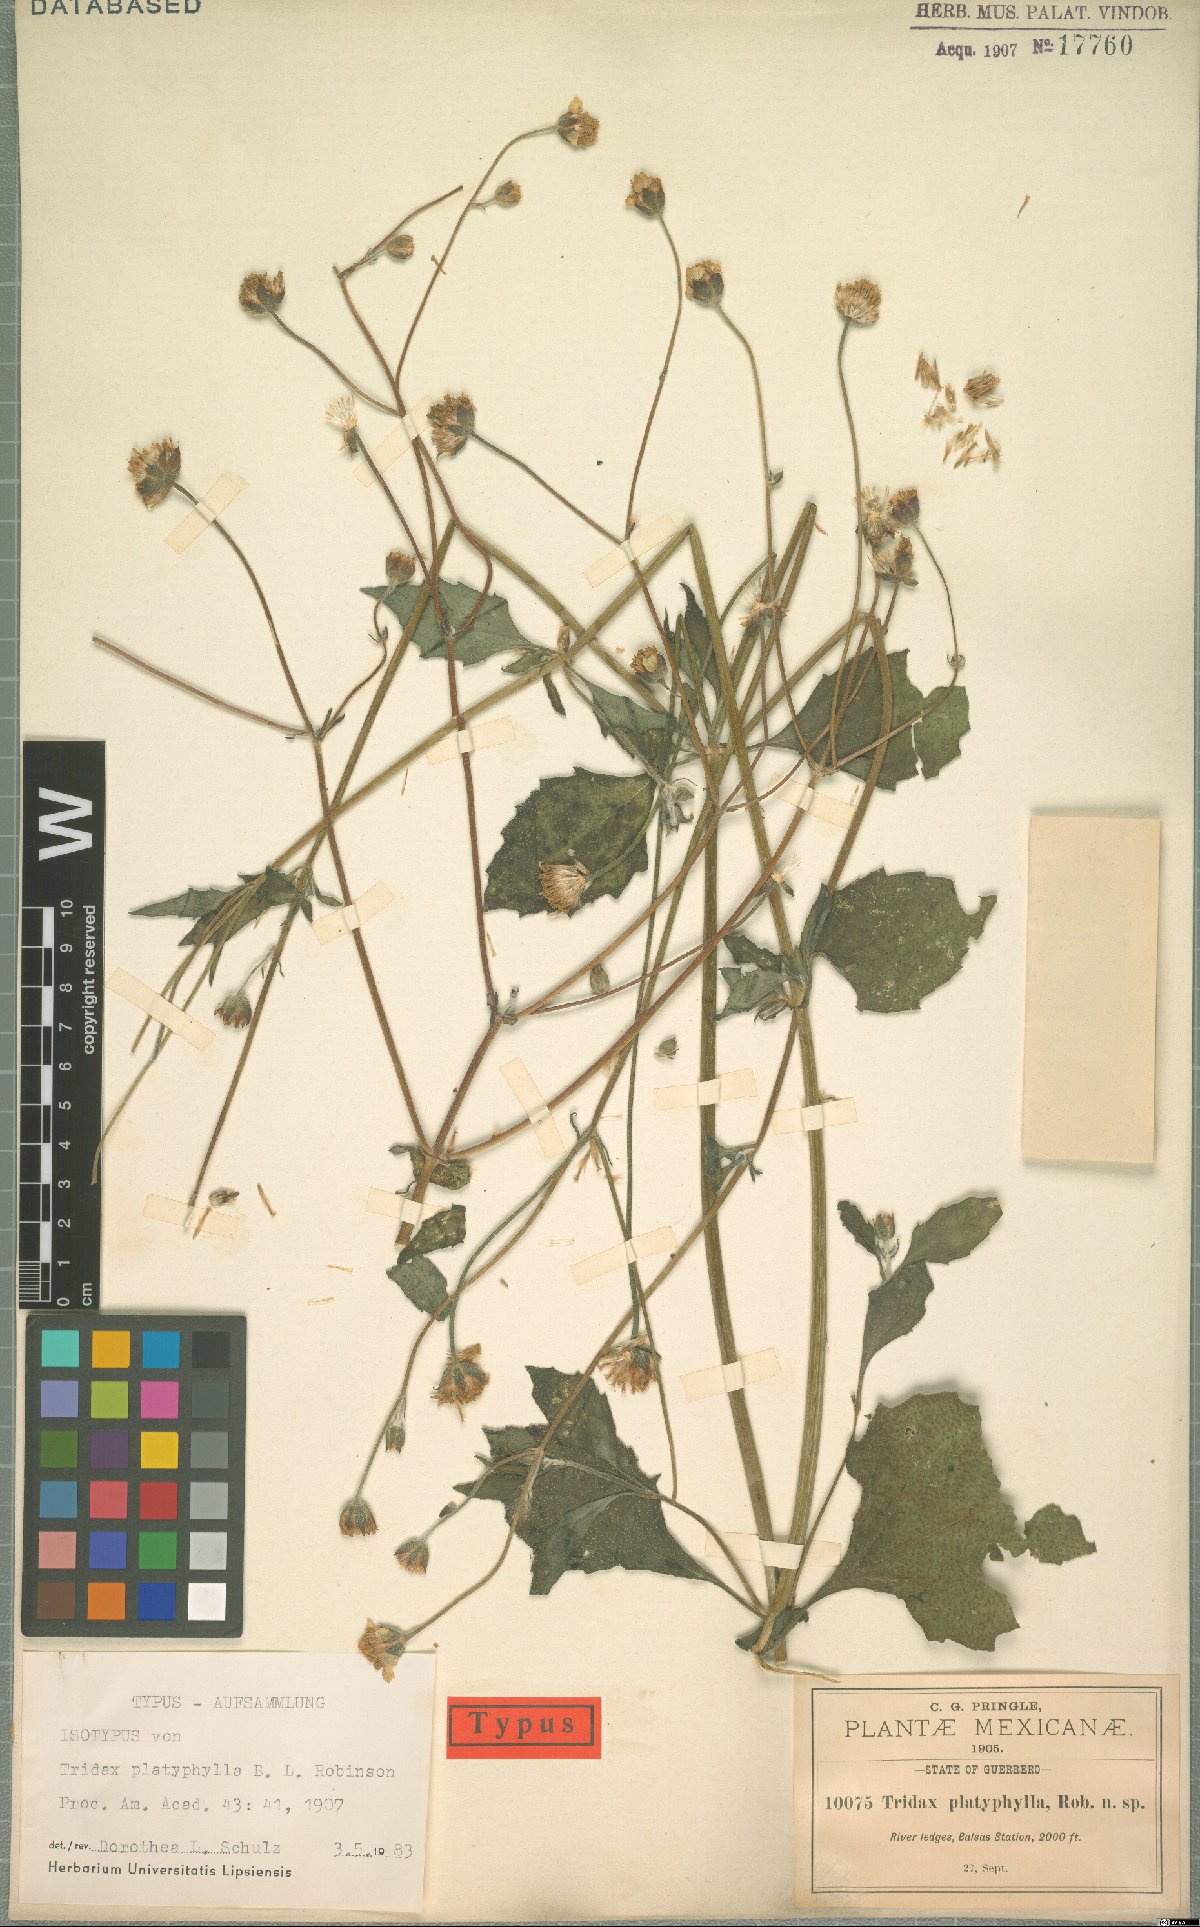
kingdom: Plantae
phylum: Tracheophyta
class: Magnoliopsida
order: Asterales
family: Asteraceae
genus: Tridax
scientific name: Tridax platyphylla
